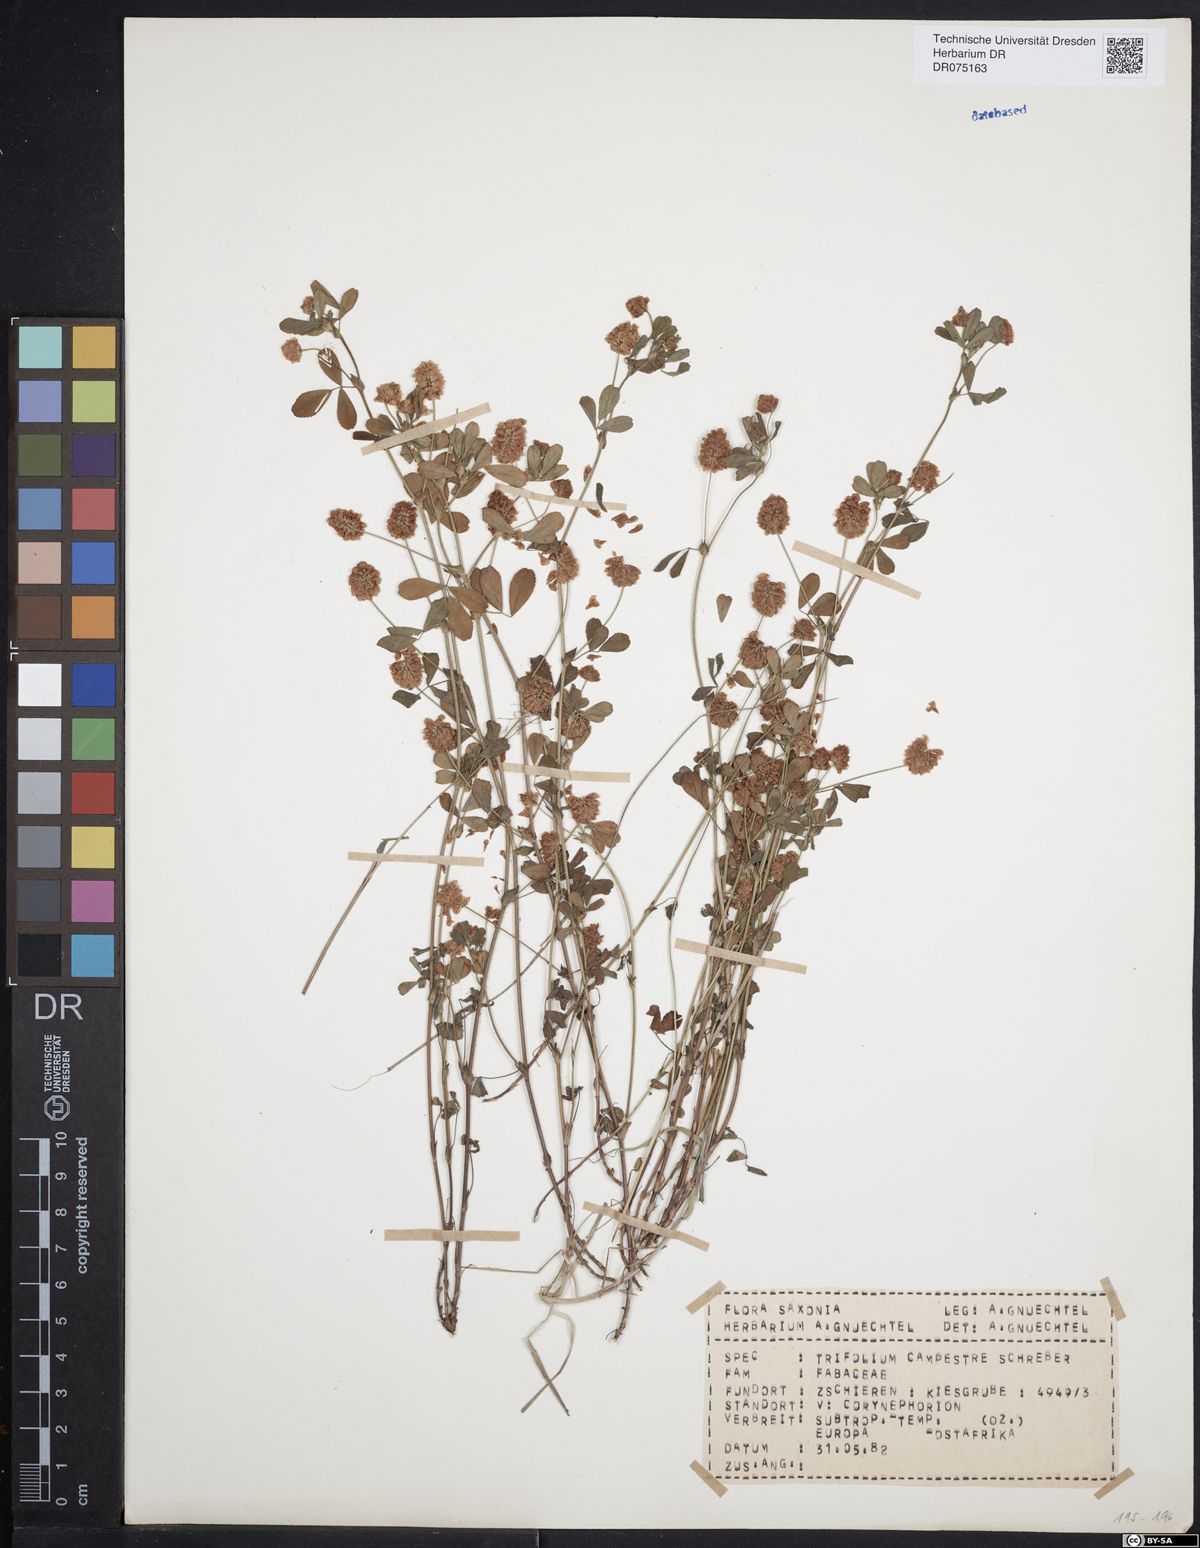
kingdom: Plantae
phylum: Tracheophyta
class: Magnoliopsida
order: Fabales
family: Fabaceae
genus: Trifolium
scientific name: Trifolium campestre
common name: Field clover
